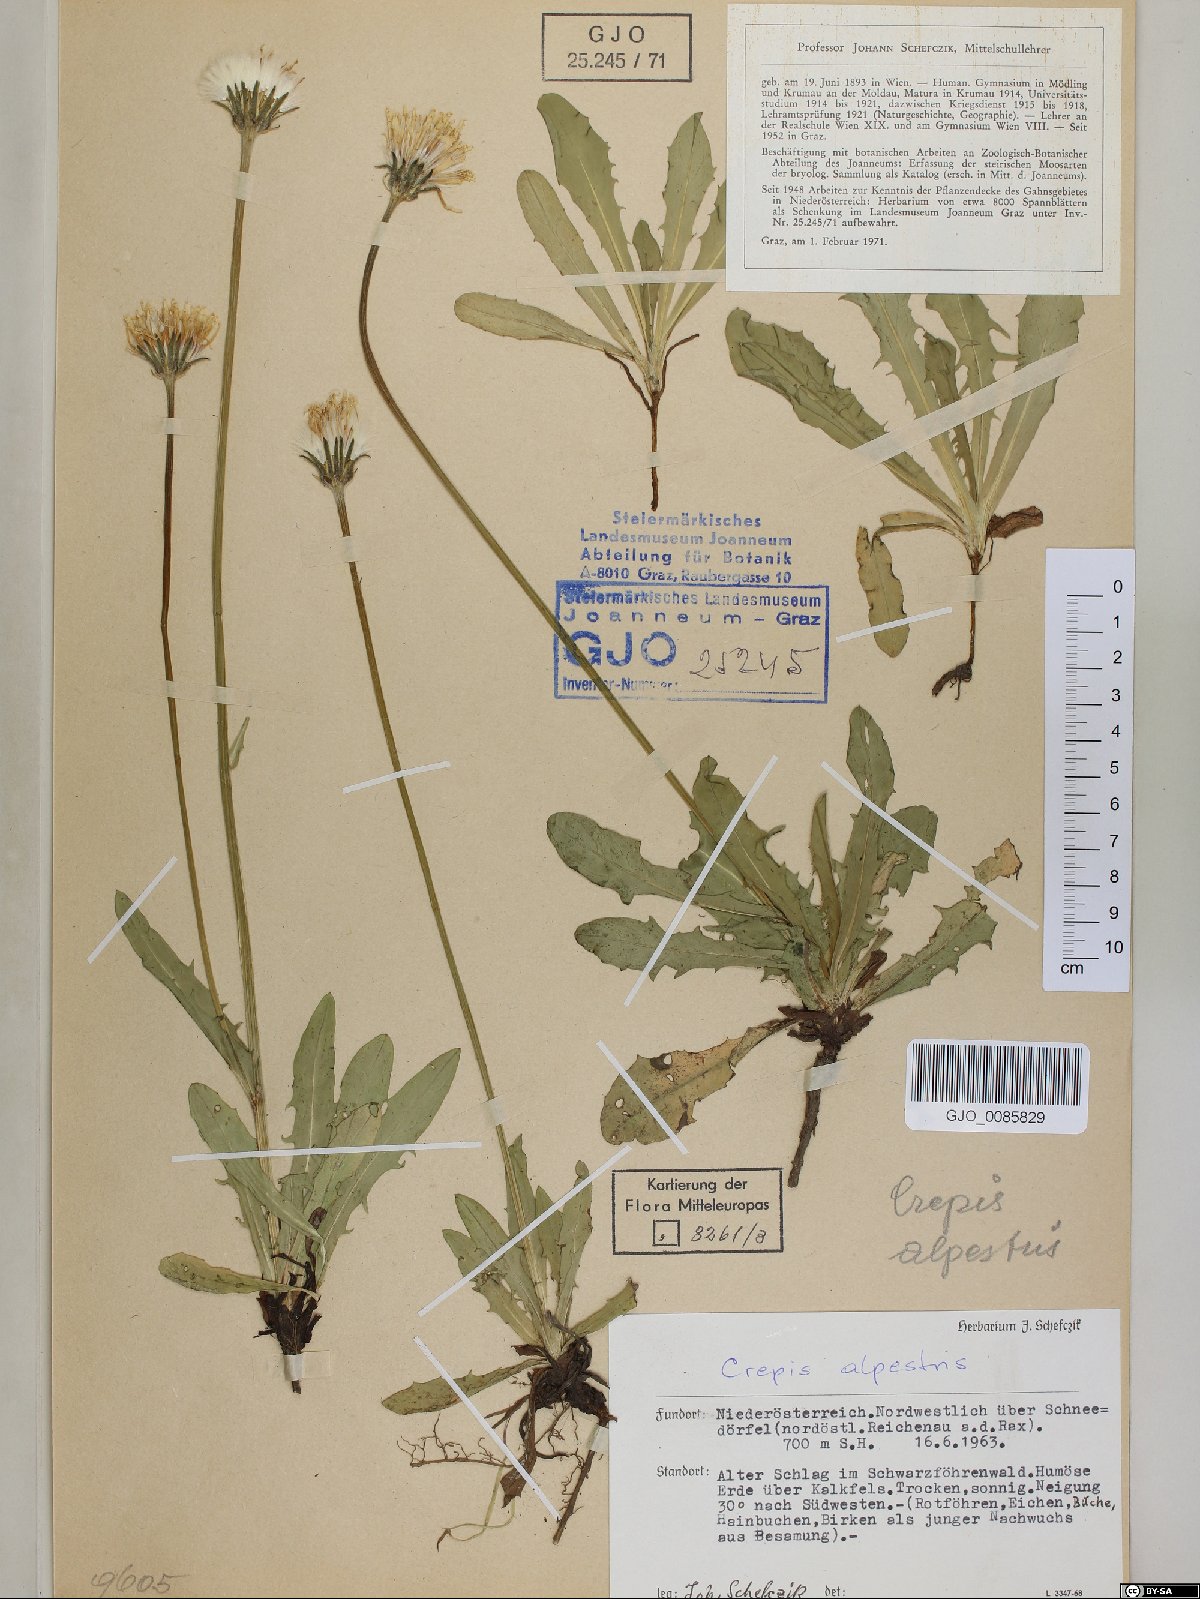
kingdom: Plantae
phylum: Tracheophyta
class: Magnoliopsida
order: Asterales
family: Asteraceae
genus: Crepis
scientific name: Crepis alpestris
